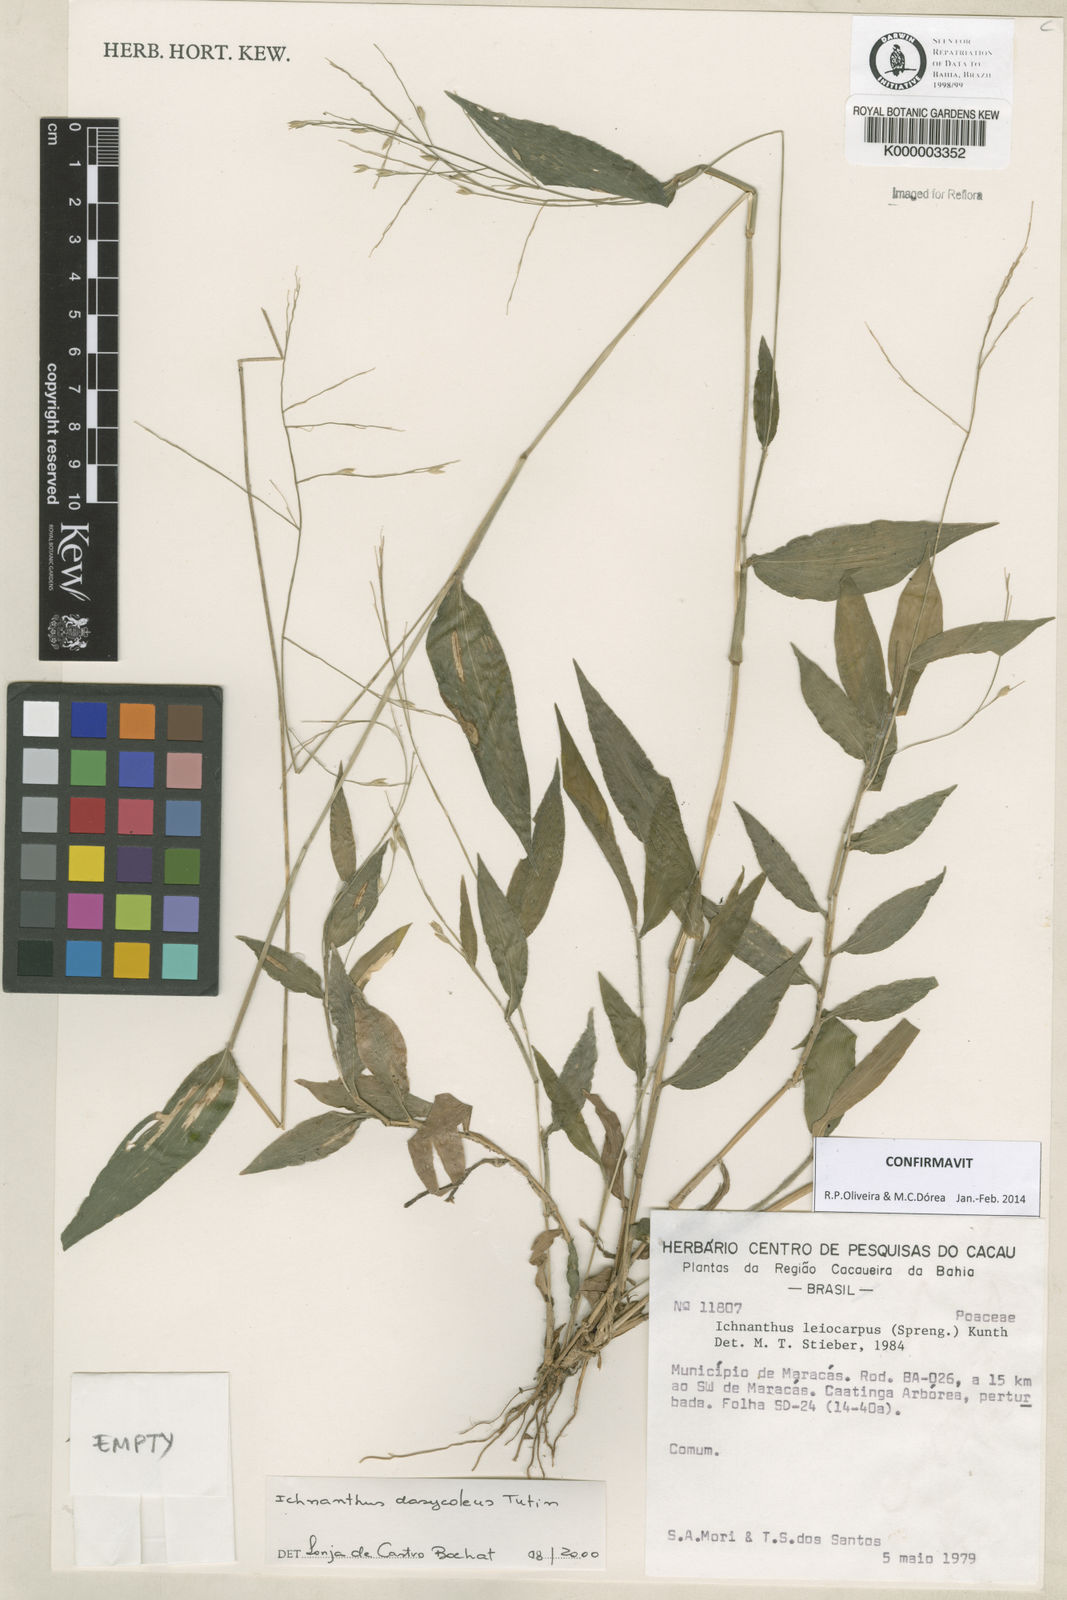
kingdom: Plantae
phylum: Tracheophyta
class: Liliopsida
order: Poales
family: Poaceae
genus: Ichnanthus
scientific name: Ichnanthus dasycoleus
